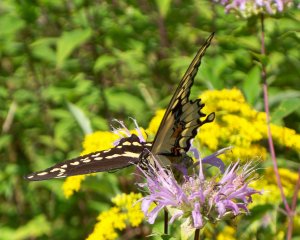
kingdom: Animalia
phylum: Arthropoda
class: Insecta
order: Lepidoptera
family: Papilionidae
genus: Papilio
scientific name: Papilio cresphontes
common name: Eastern Giant Swallowtail
